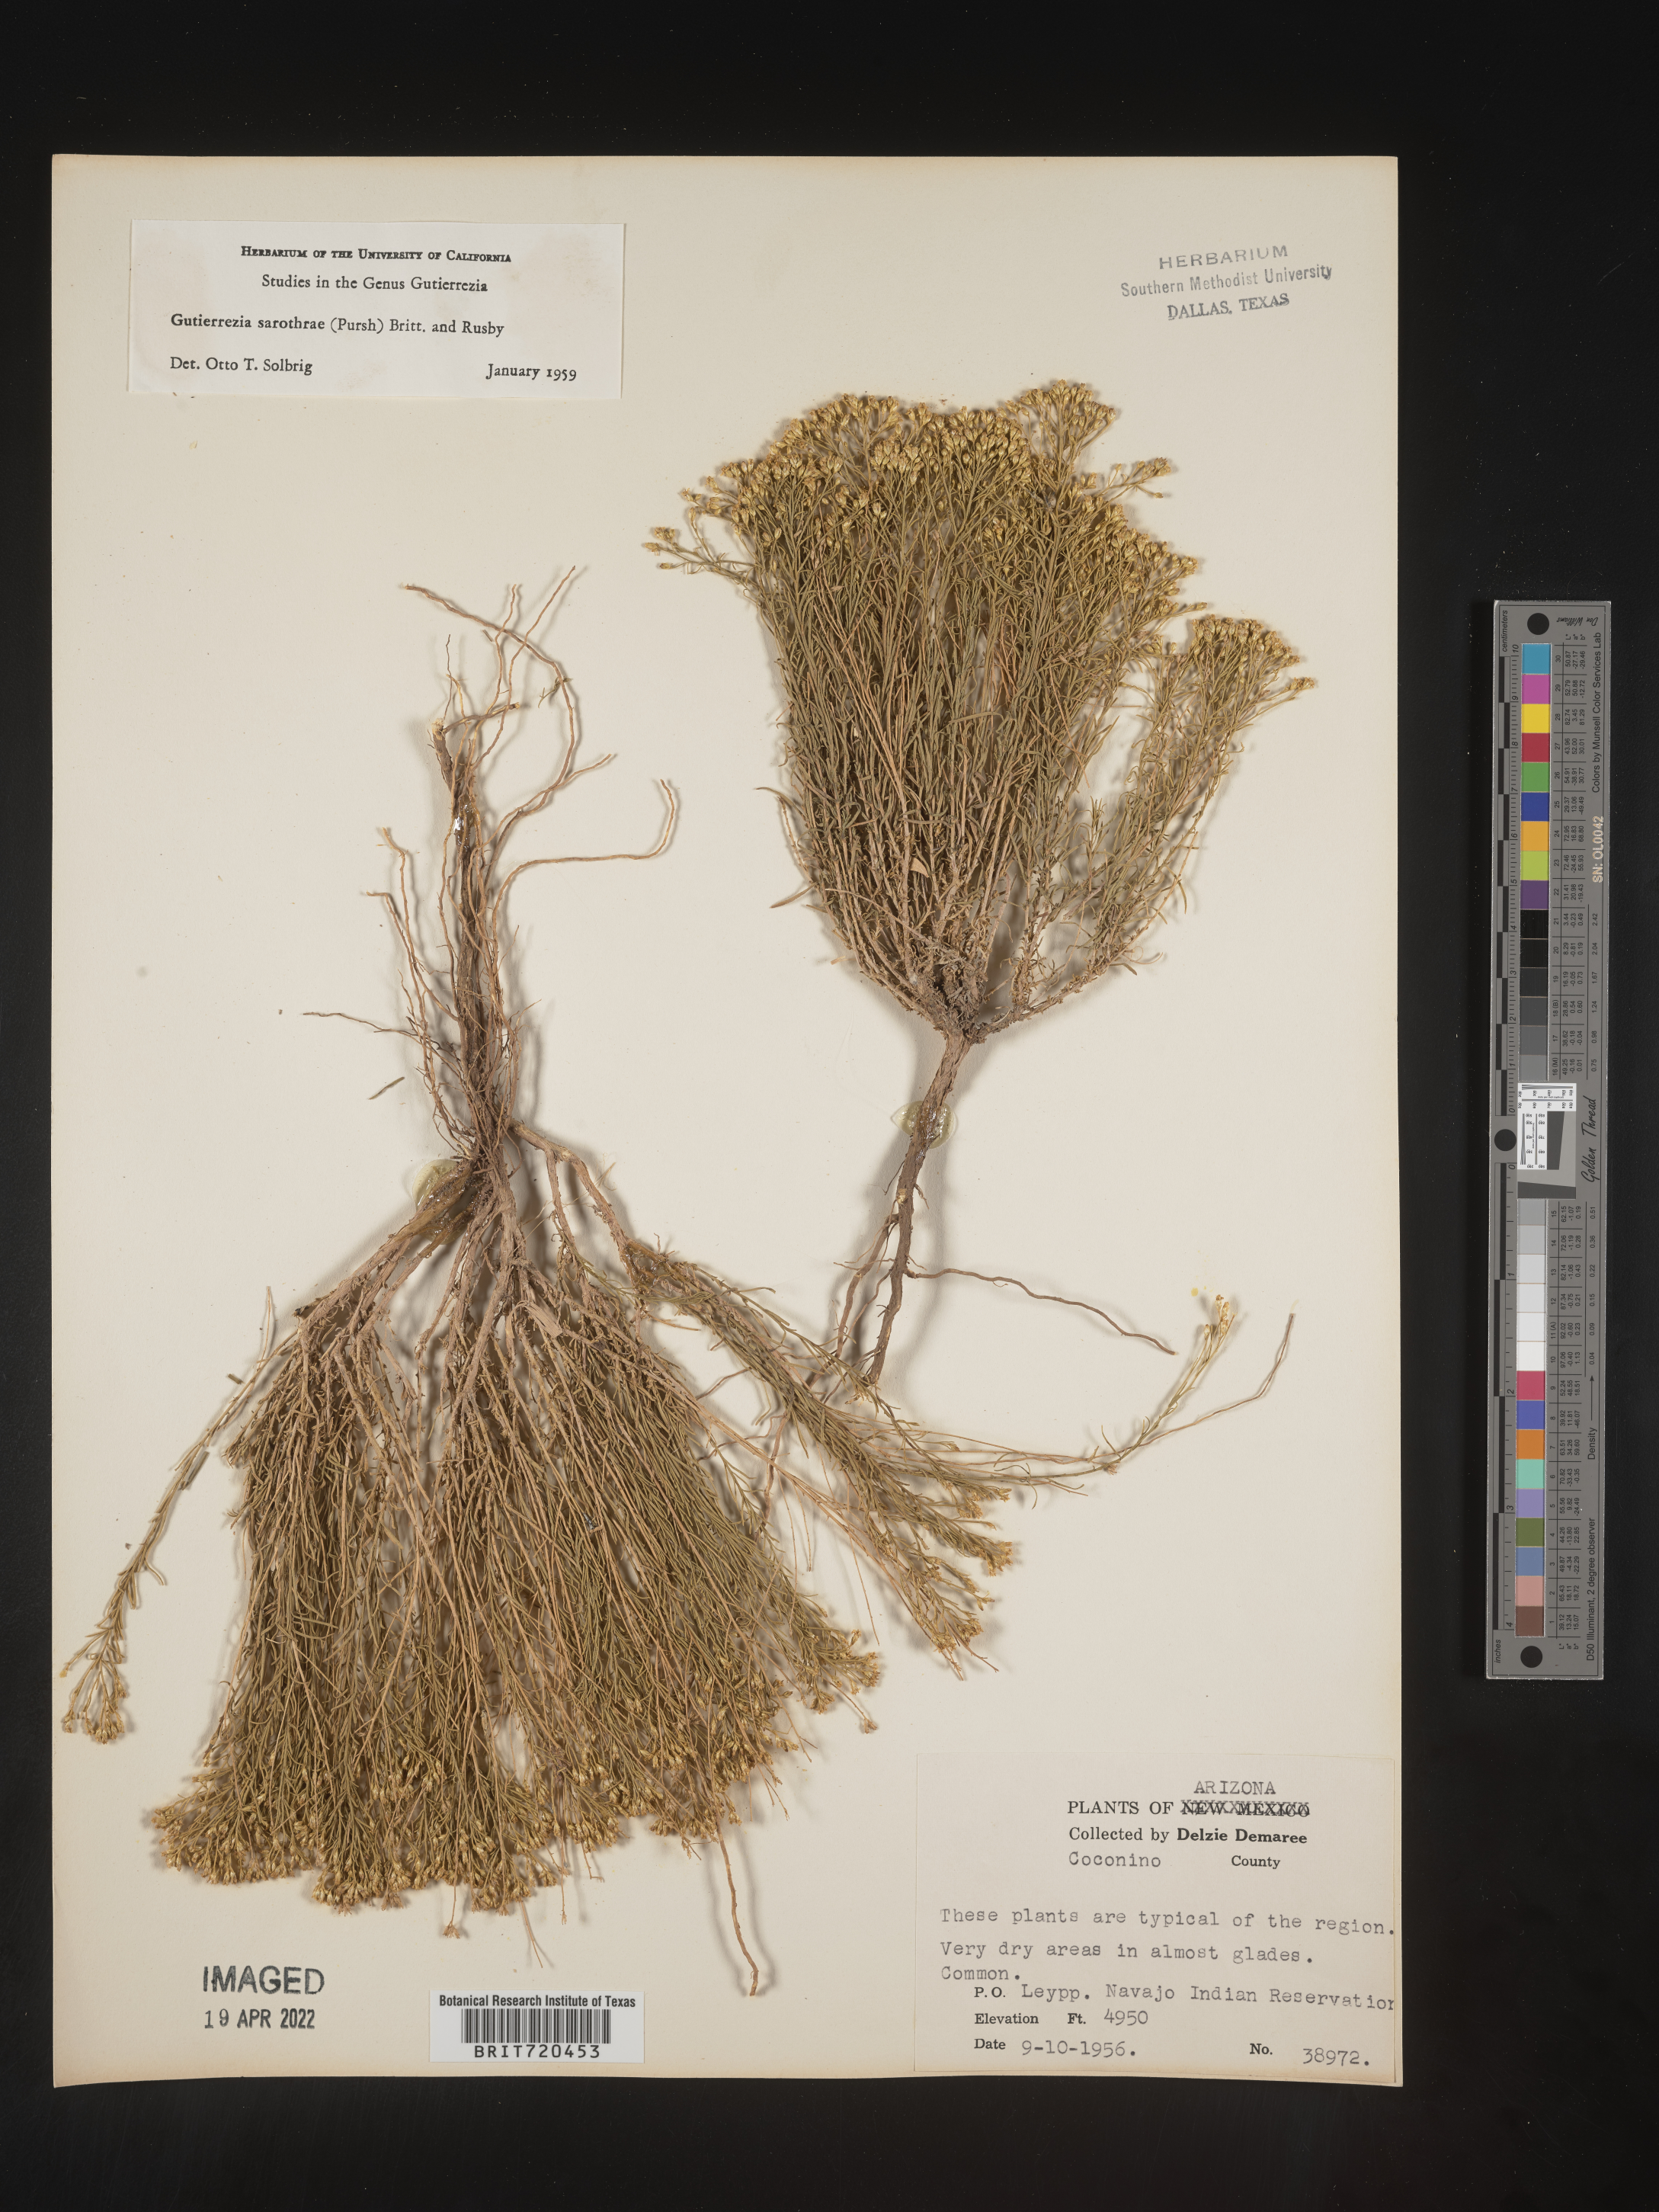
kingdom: Plantae
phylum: Tracheophyta
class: Magnoliopsida
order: Asterales
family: Asteraceae
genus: Gutierrezia
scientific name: Gutierrezia sarothrae
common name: Broom snakeweed
